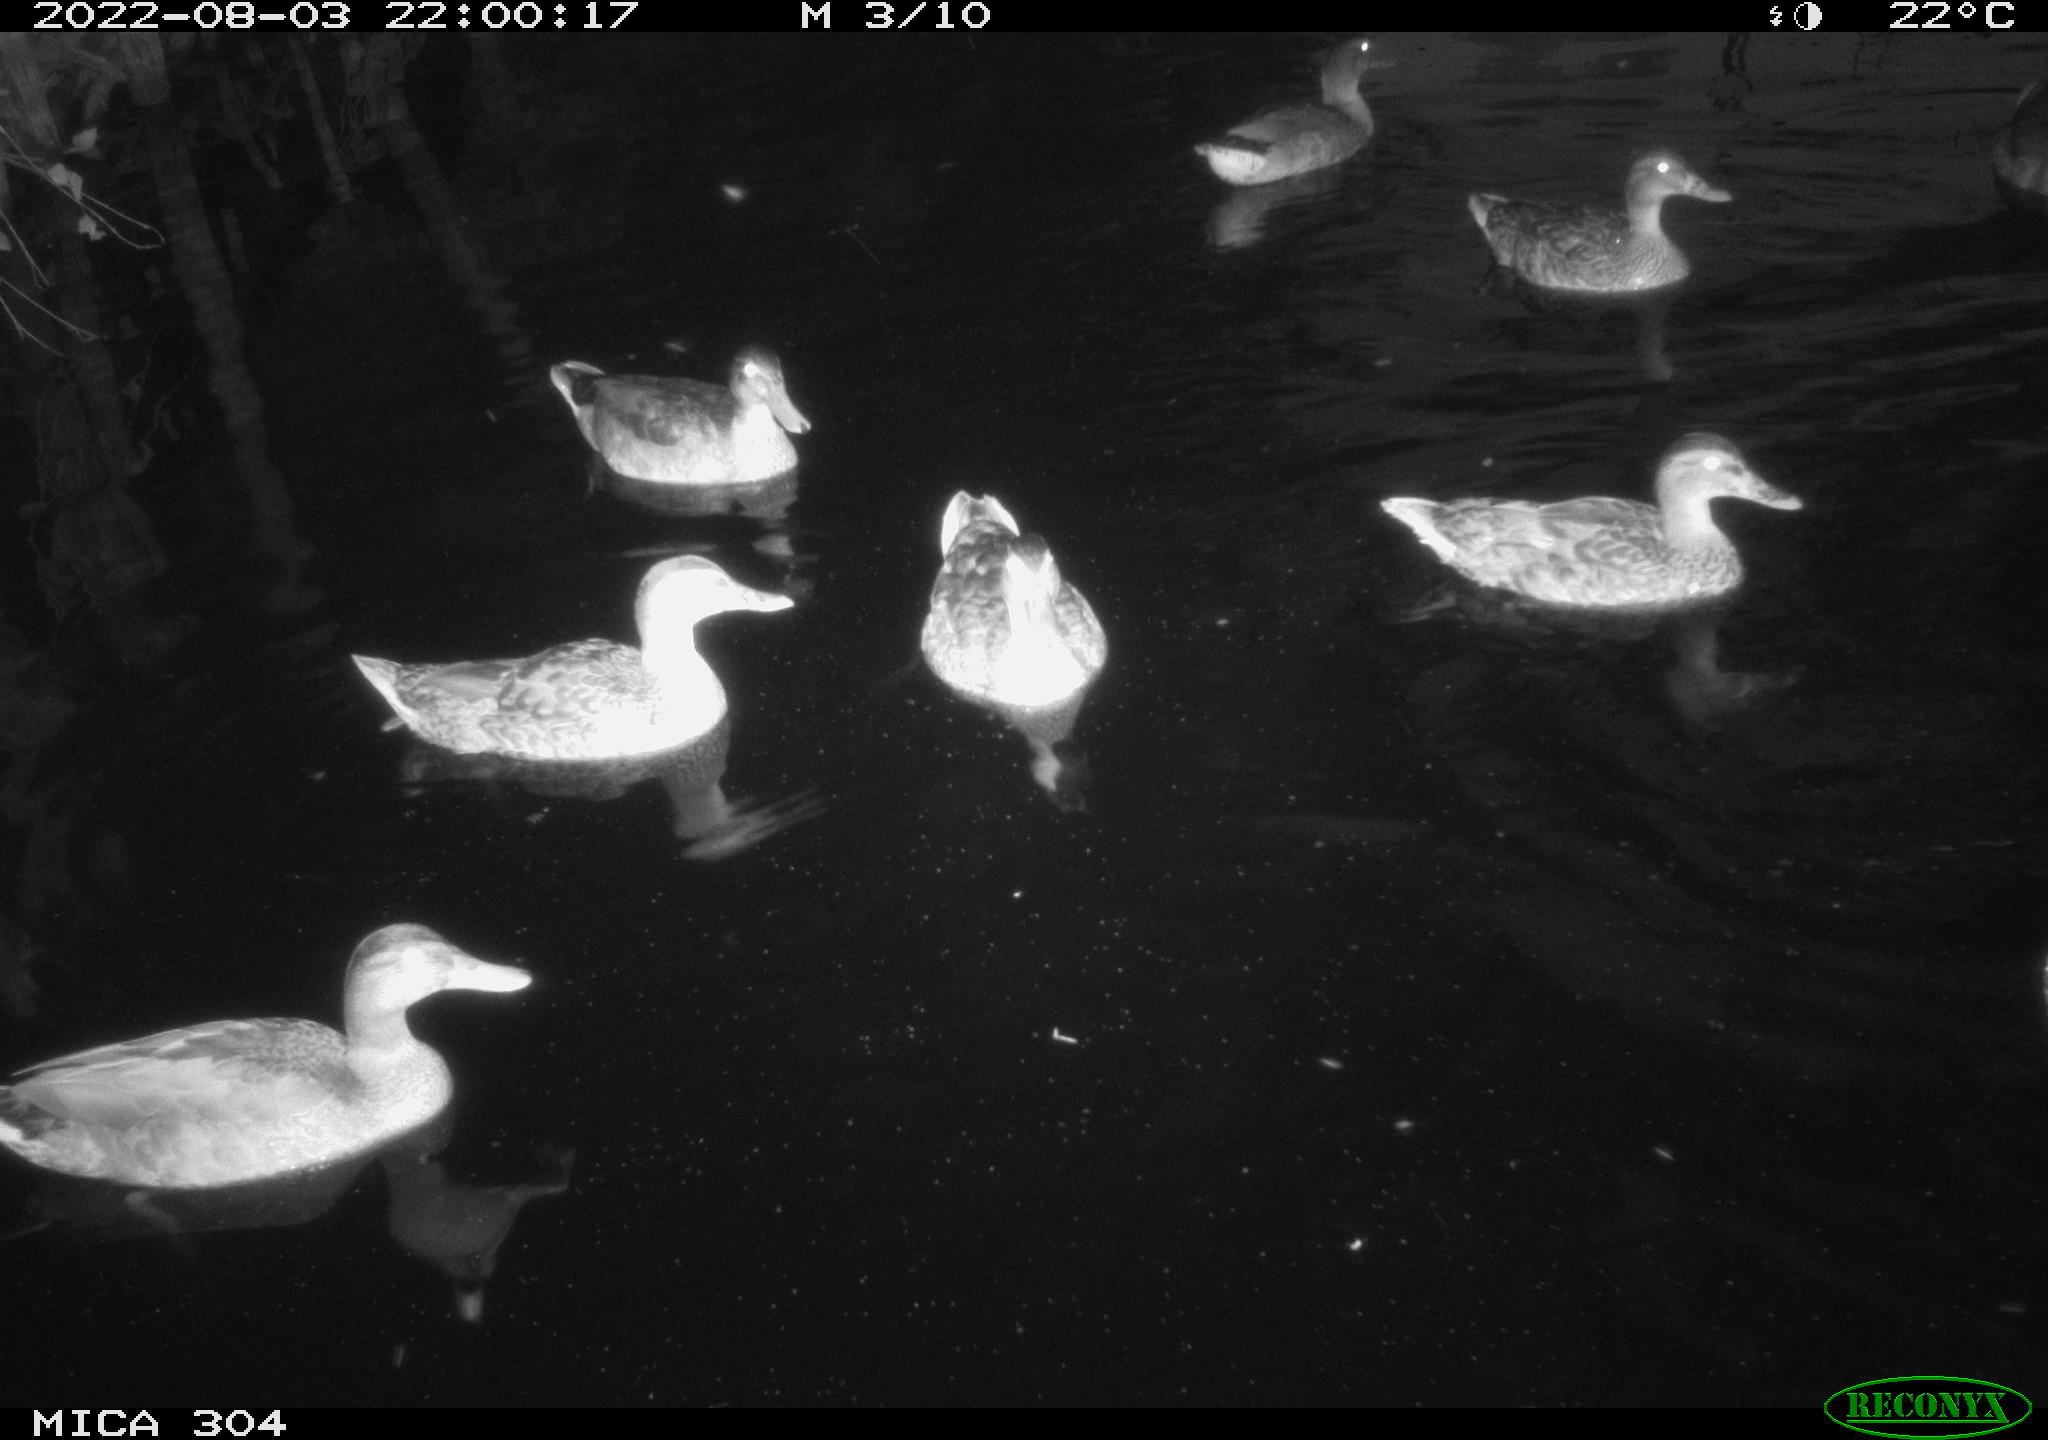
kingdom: Animalia
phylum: Chordata
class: Aves
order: Anseriformes
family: Anatidae
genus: Mareca
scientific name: Mareca strepera
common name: Gadwall
